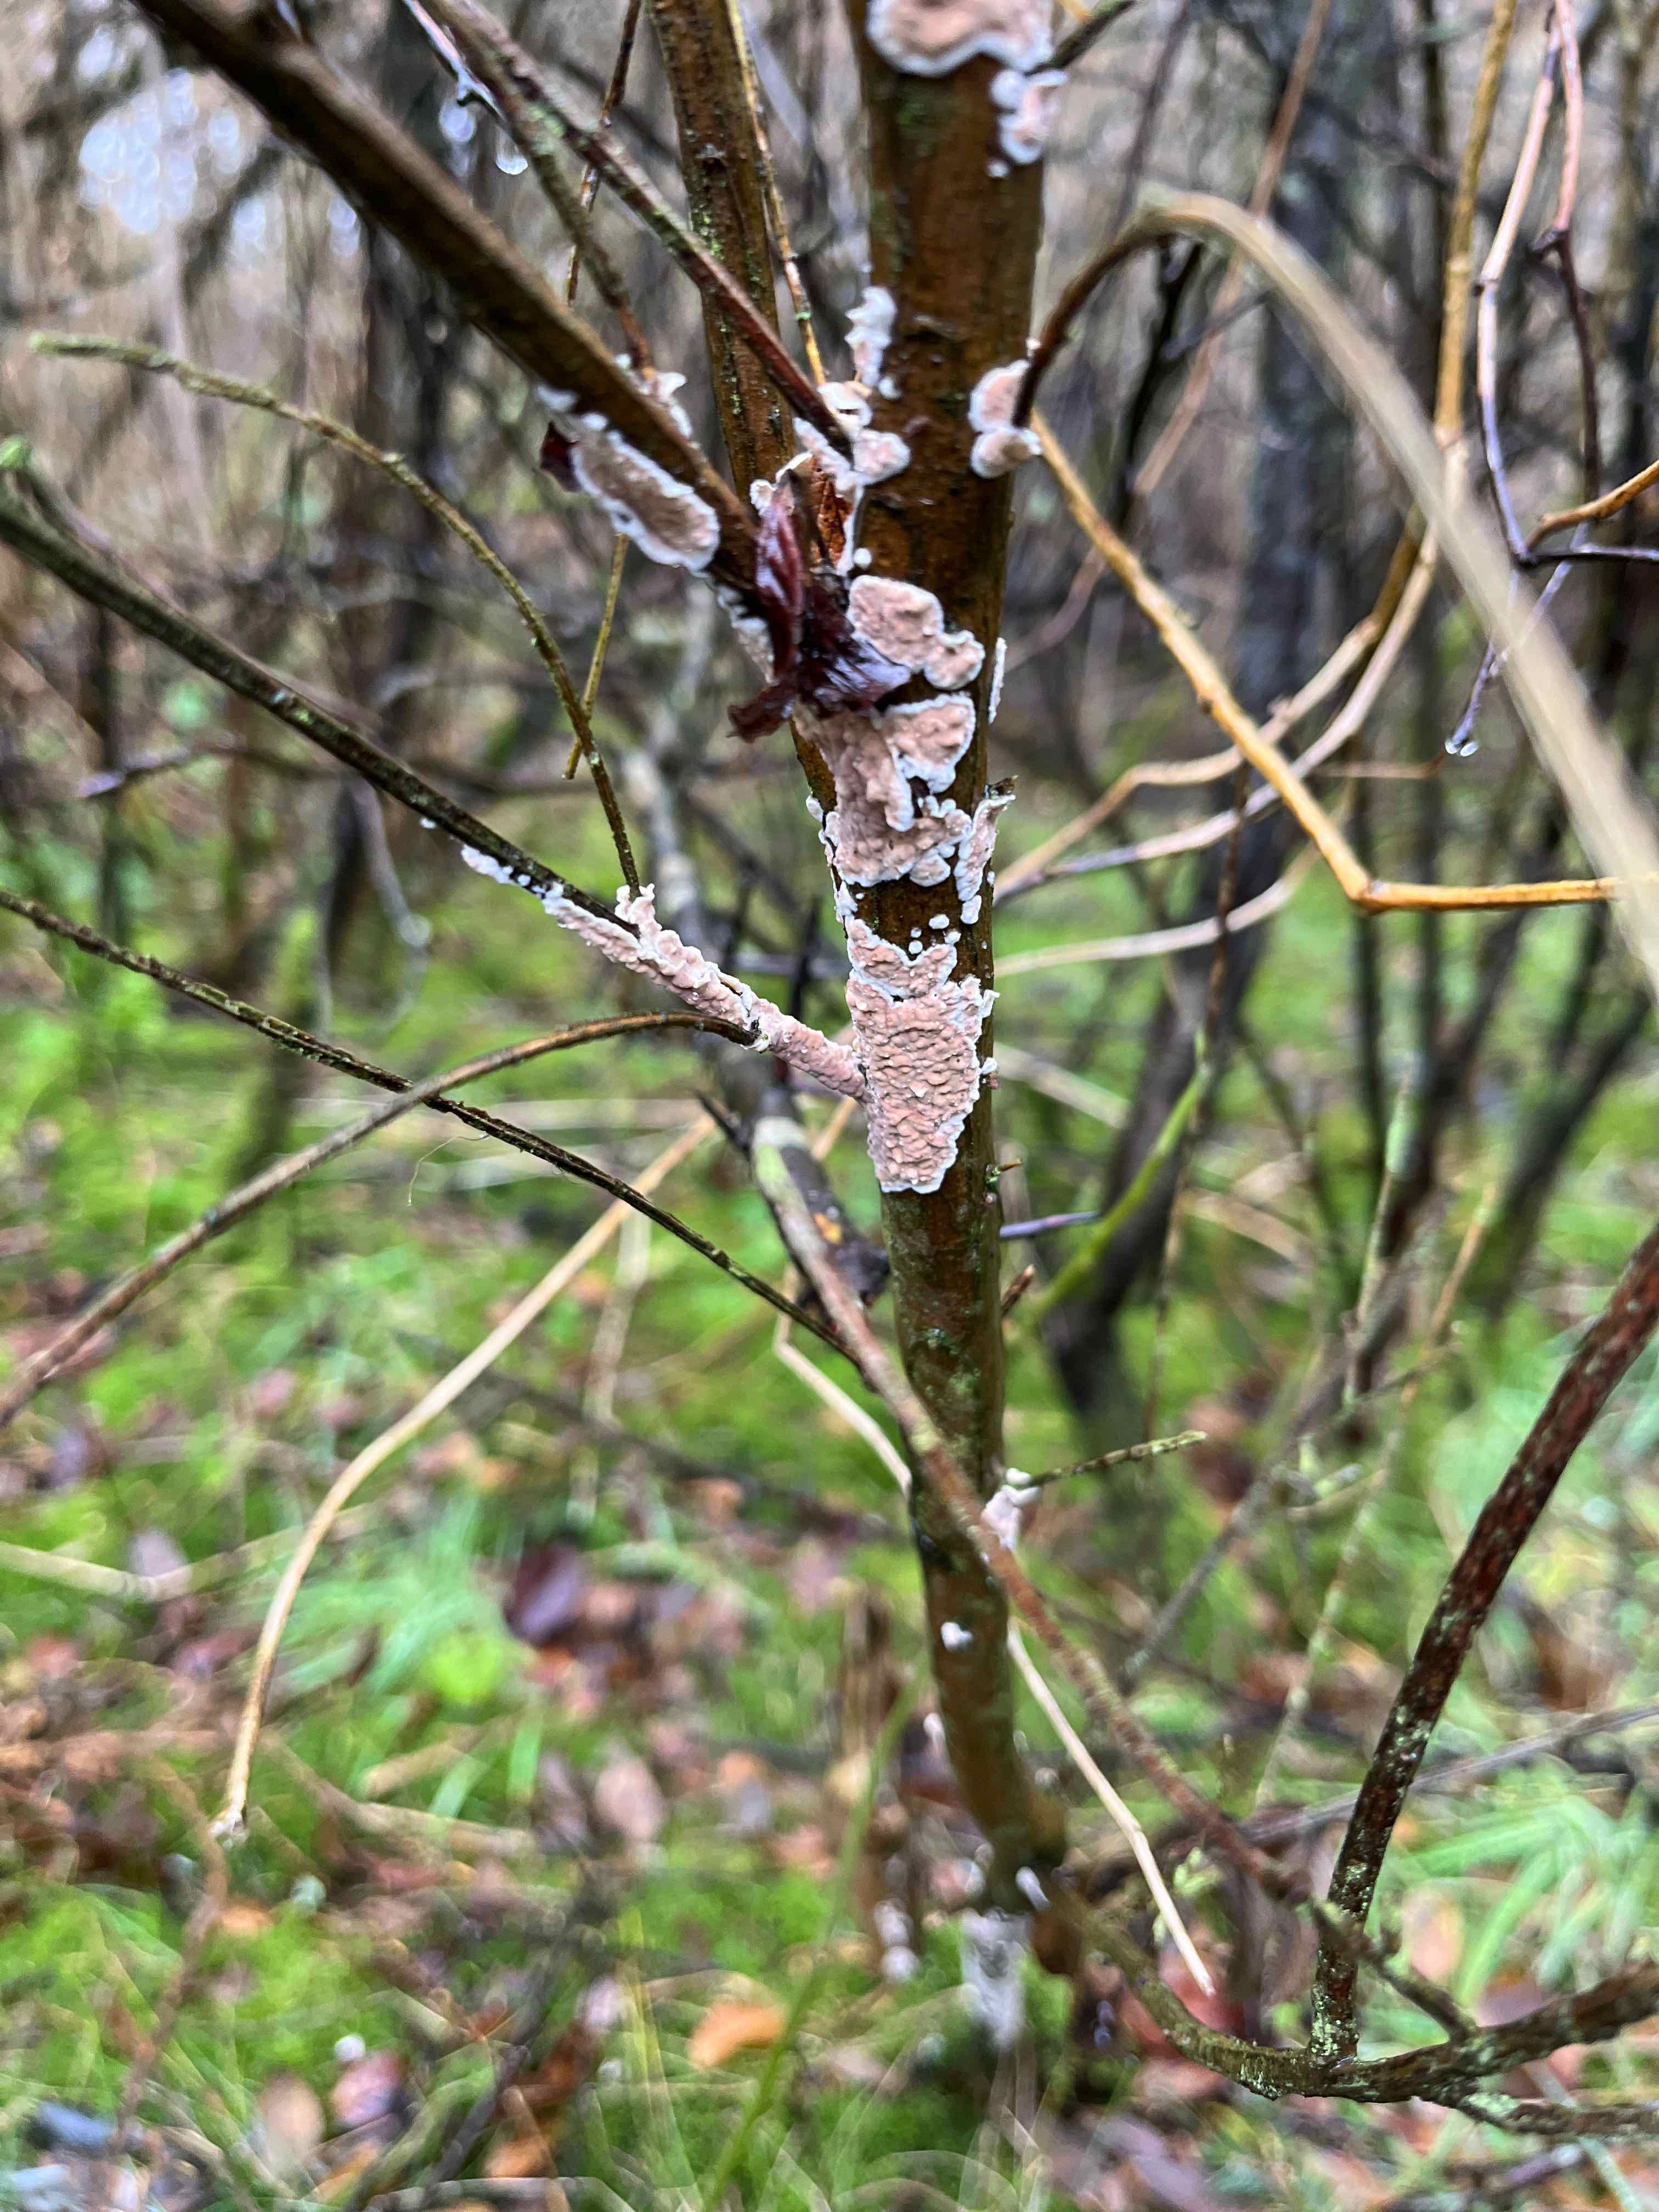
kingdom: Fungi
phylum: Basidiomycota
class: Agaricomycetes
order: Agaricales
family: Physalacriaceae
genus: Cylindrobasidium
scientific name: Cylindrobasidium evolvens
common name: sprækkehinde
